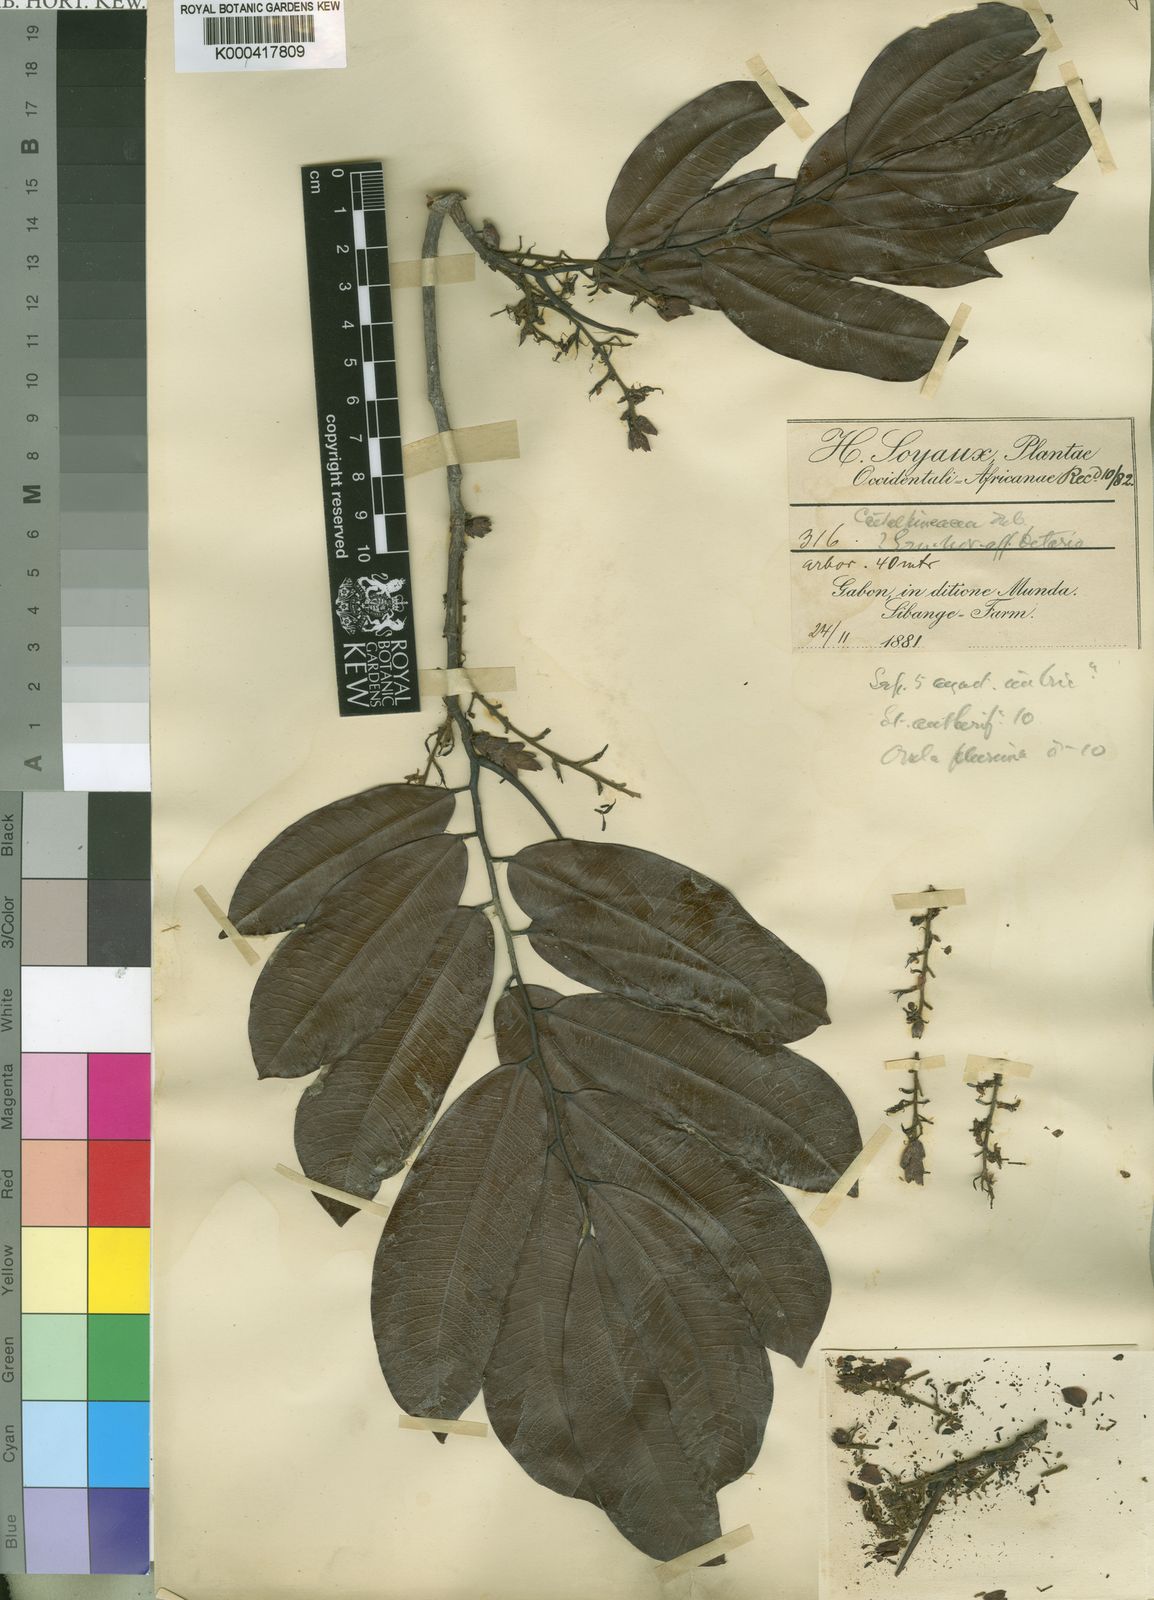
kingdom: Plantae
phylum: Tracheophyta
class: Magnoliopsida
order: Fabales
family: Fabaceae
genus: Hylodendron
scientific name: Hylodendron gabunense
